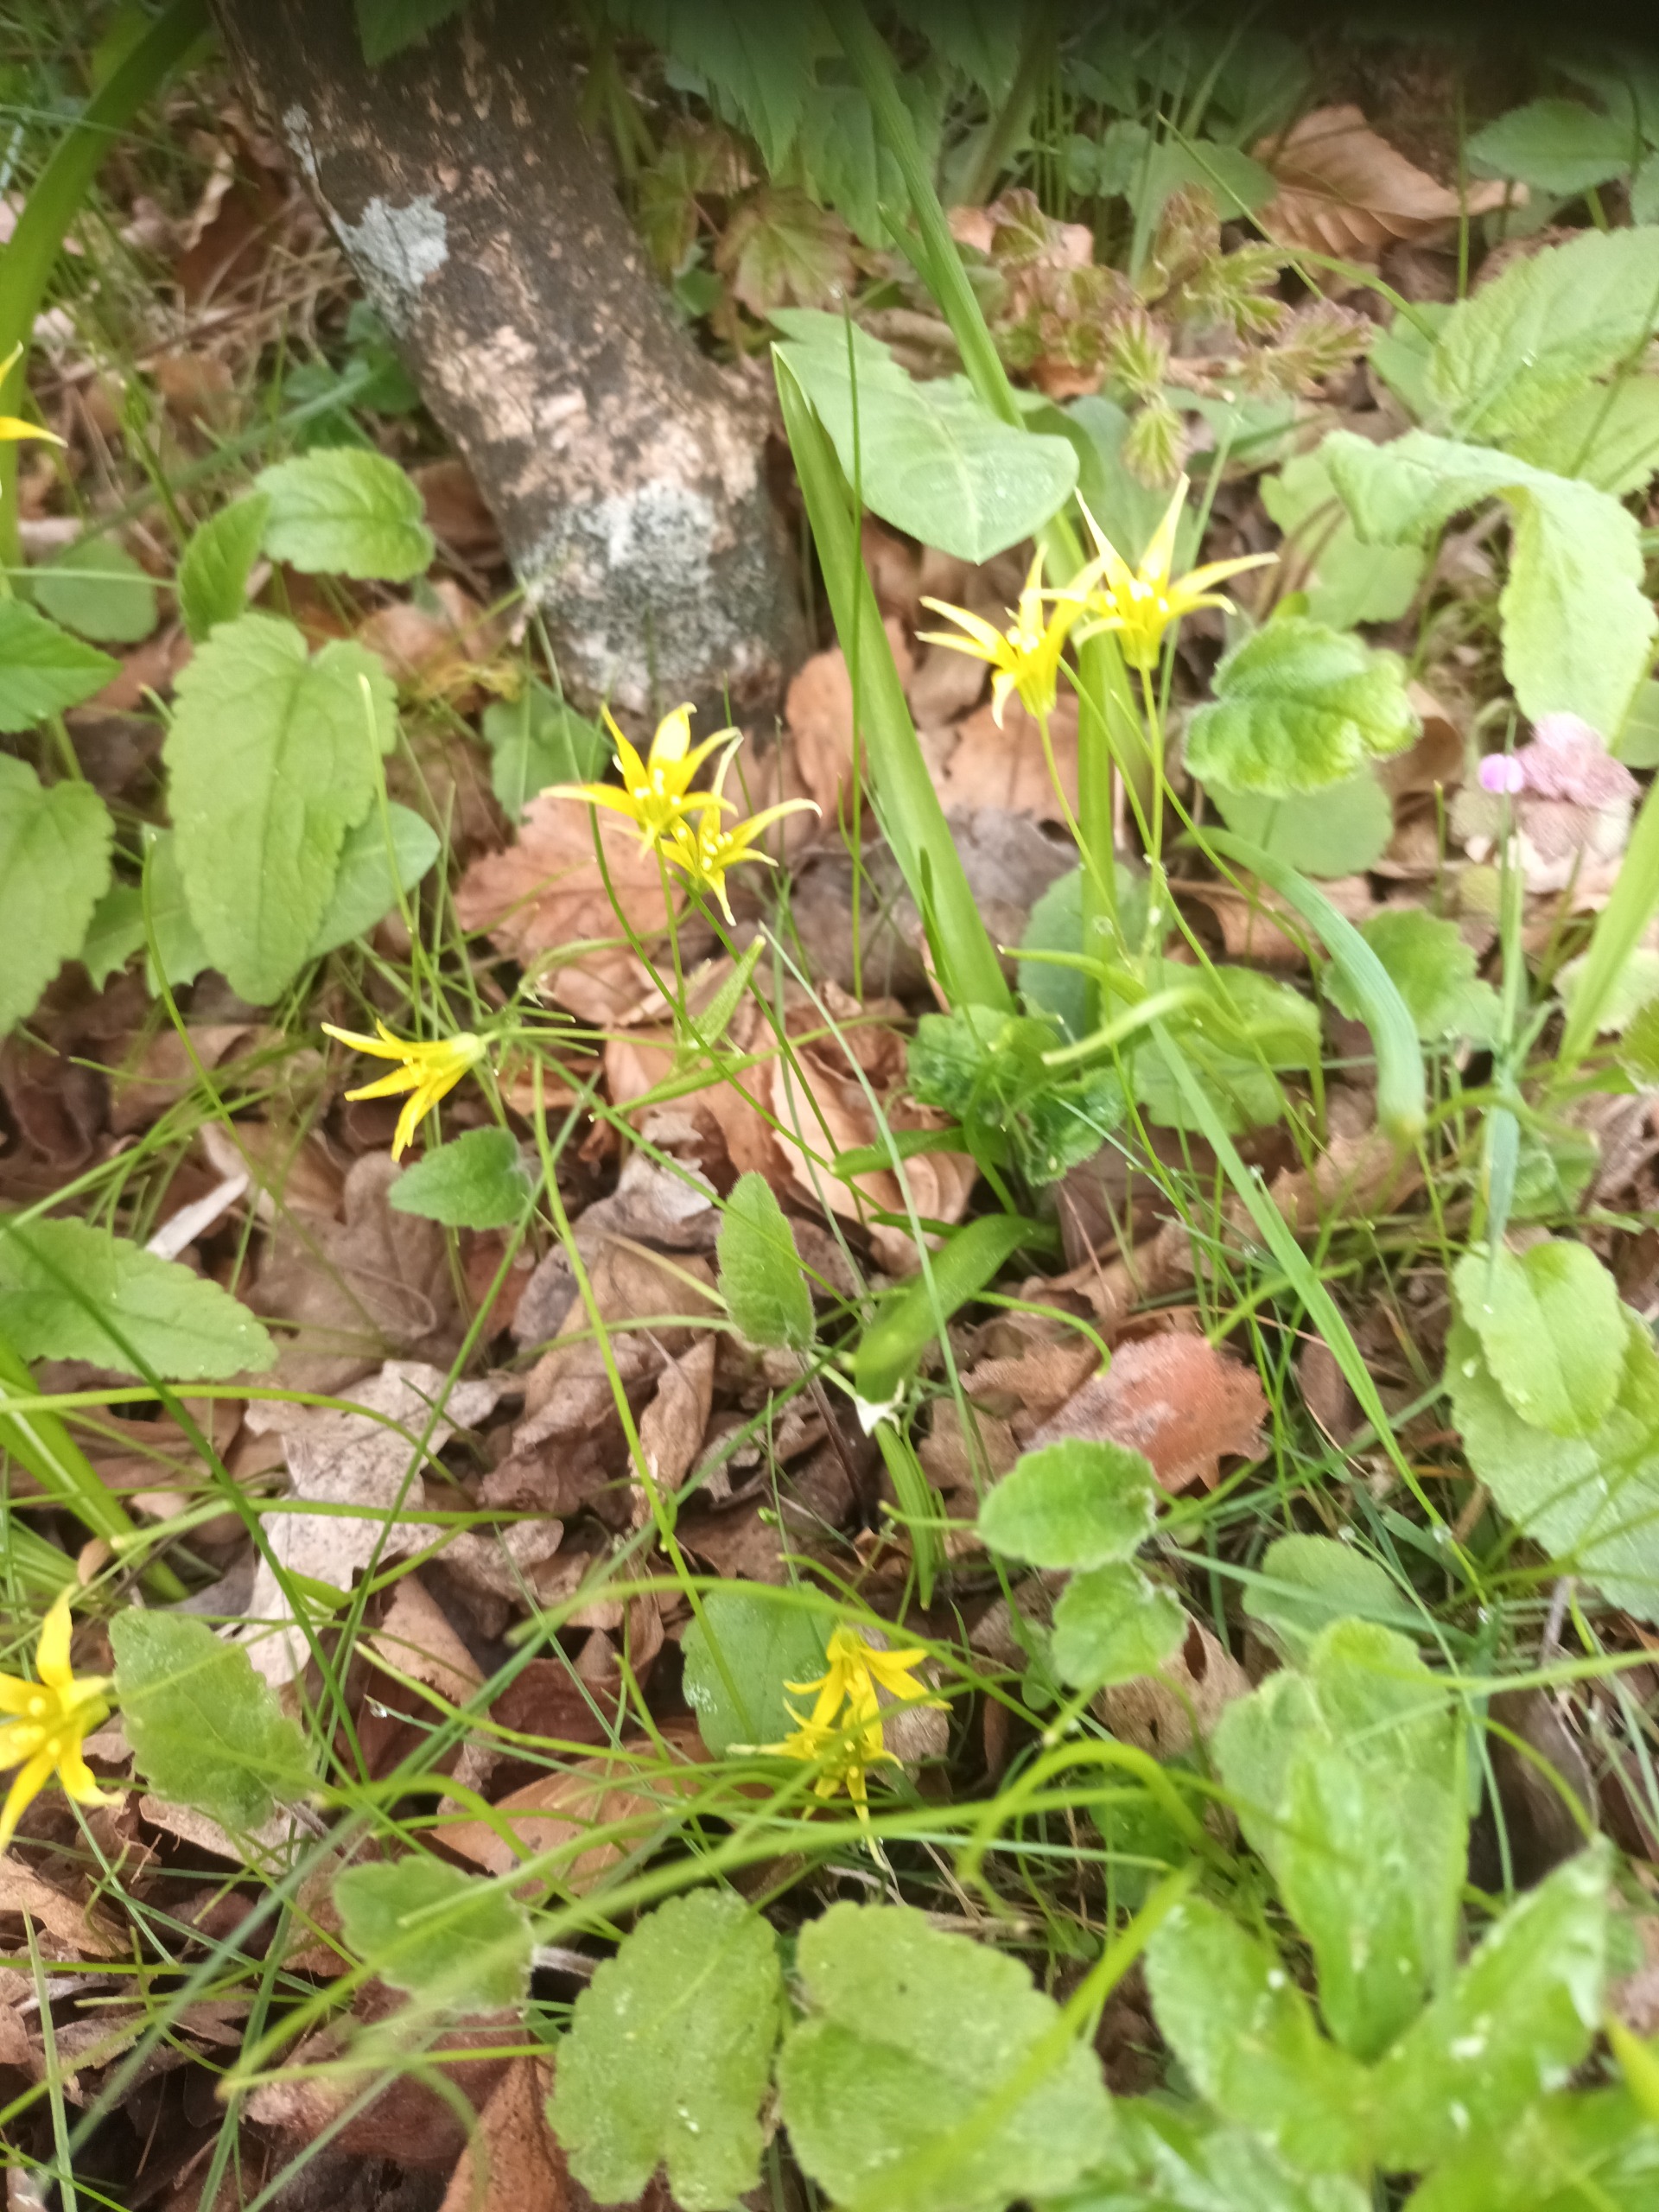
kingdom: Plantae
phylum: Tracheophyta
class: Liliopsida
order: Liliales
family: Liliaceae
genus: Gagea
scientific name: Gagea minima
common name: Liden guldstjerne
